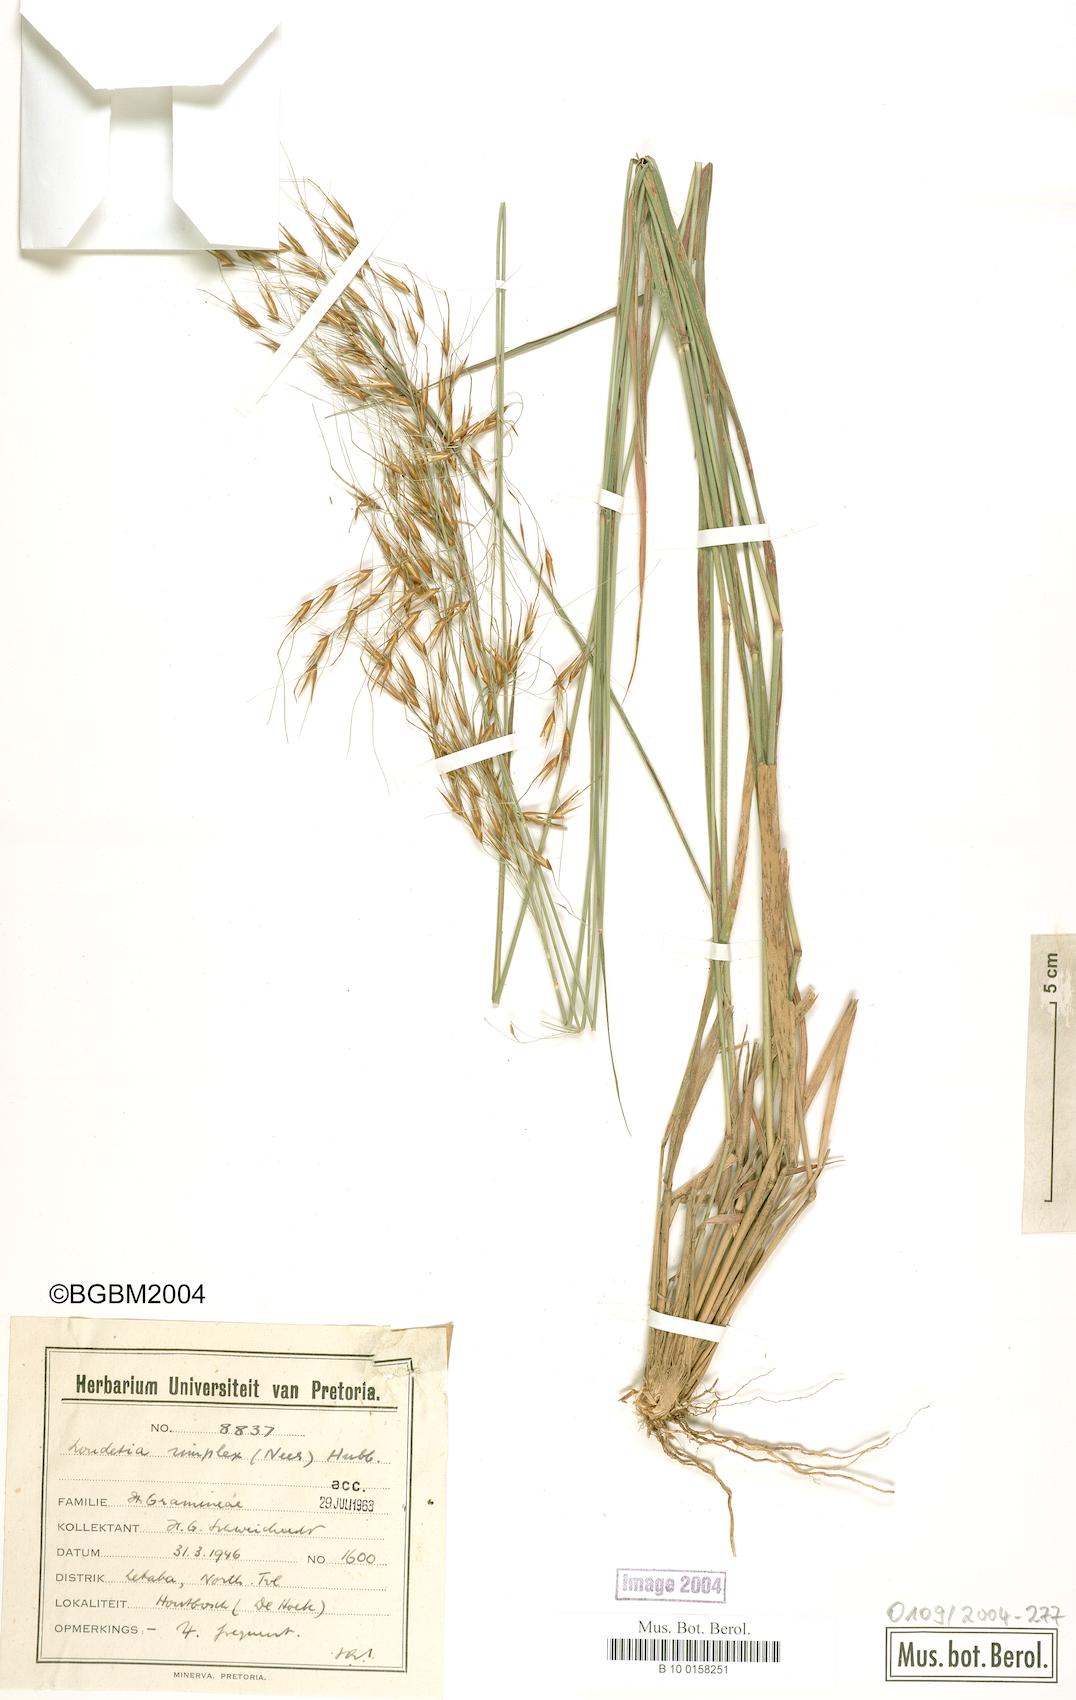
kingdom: Plantae
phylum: Tracheophyta
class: Liliopsida
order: Poales
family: Poaceae
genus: Loudetia
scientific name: Loudetia simplex
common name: Common russet grass
